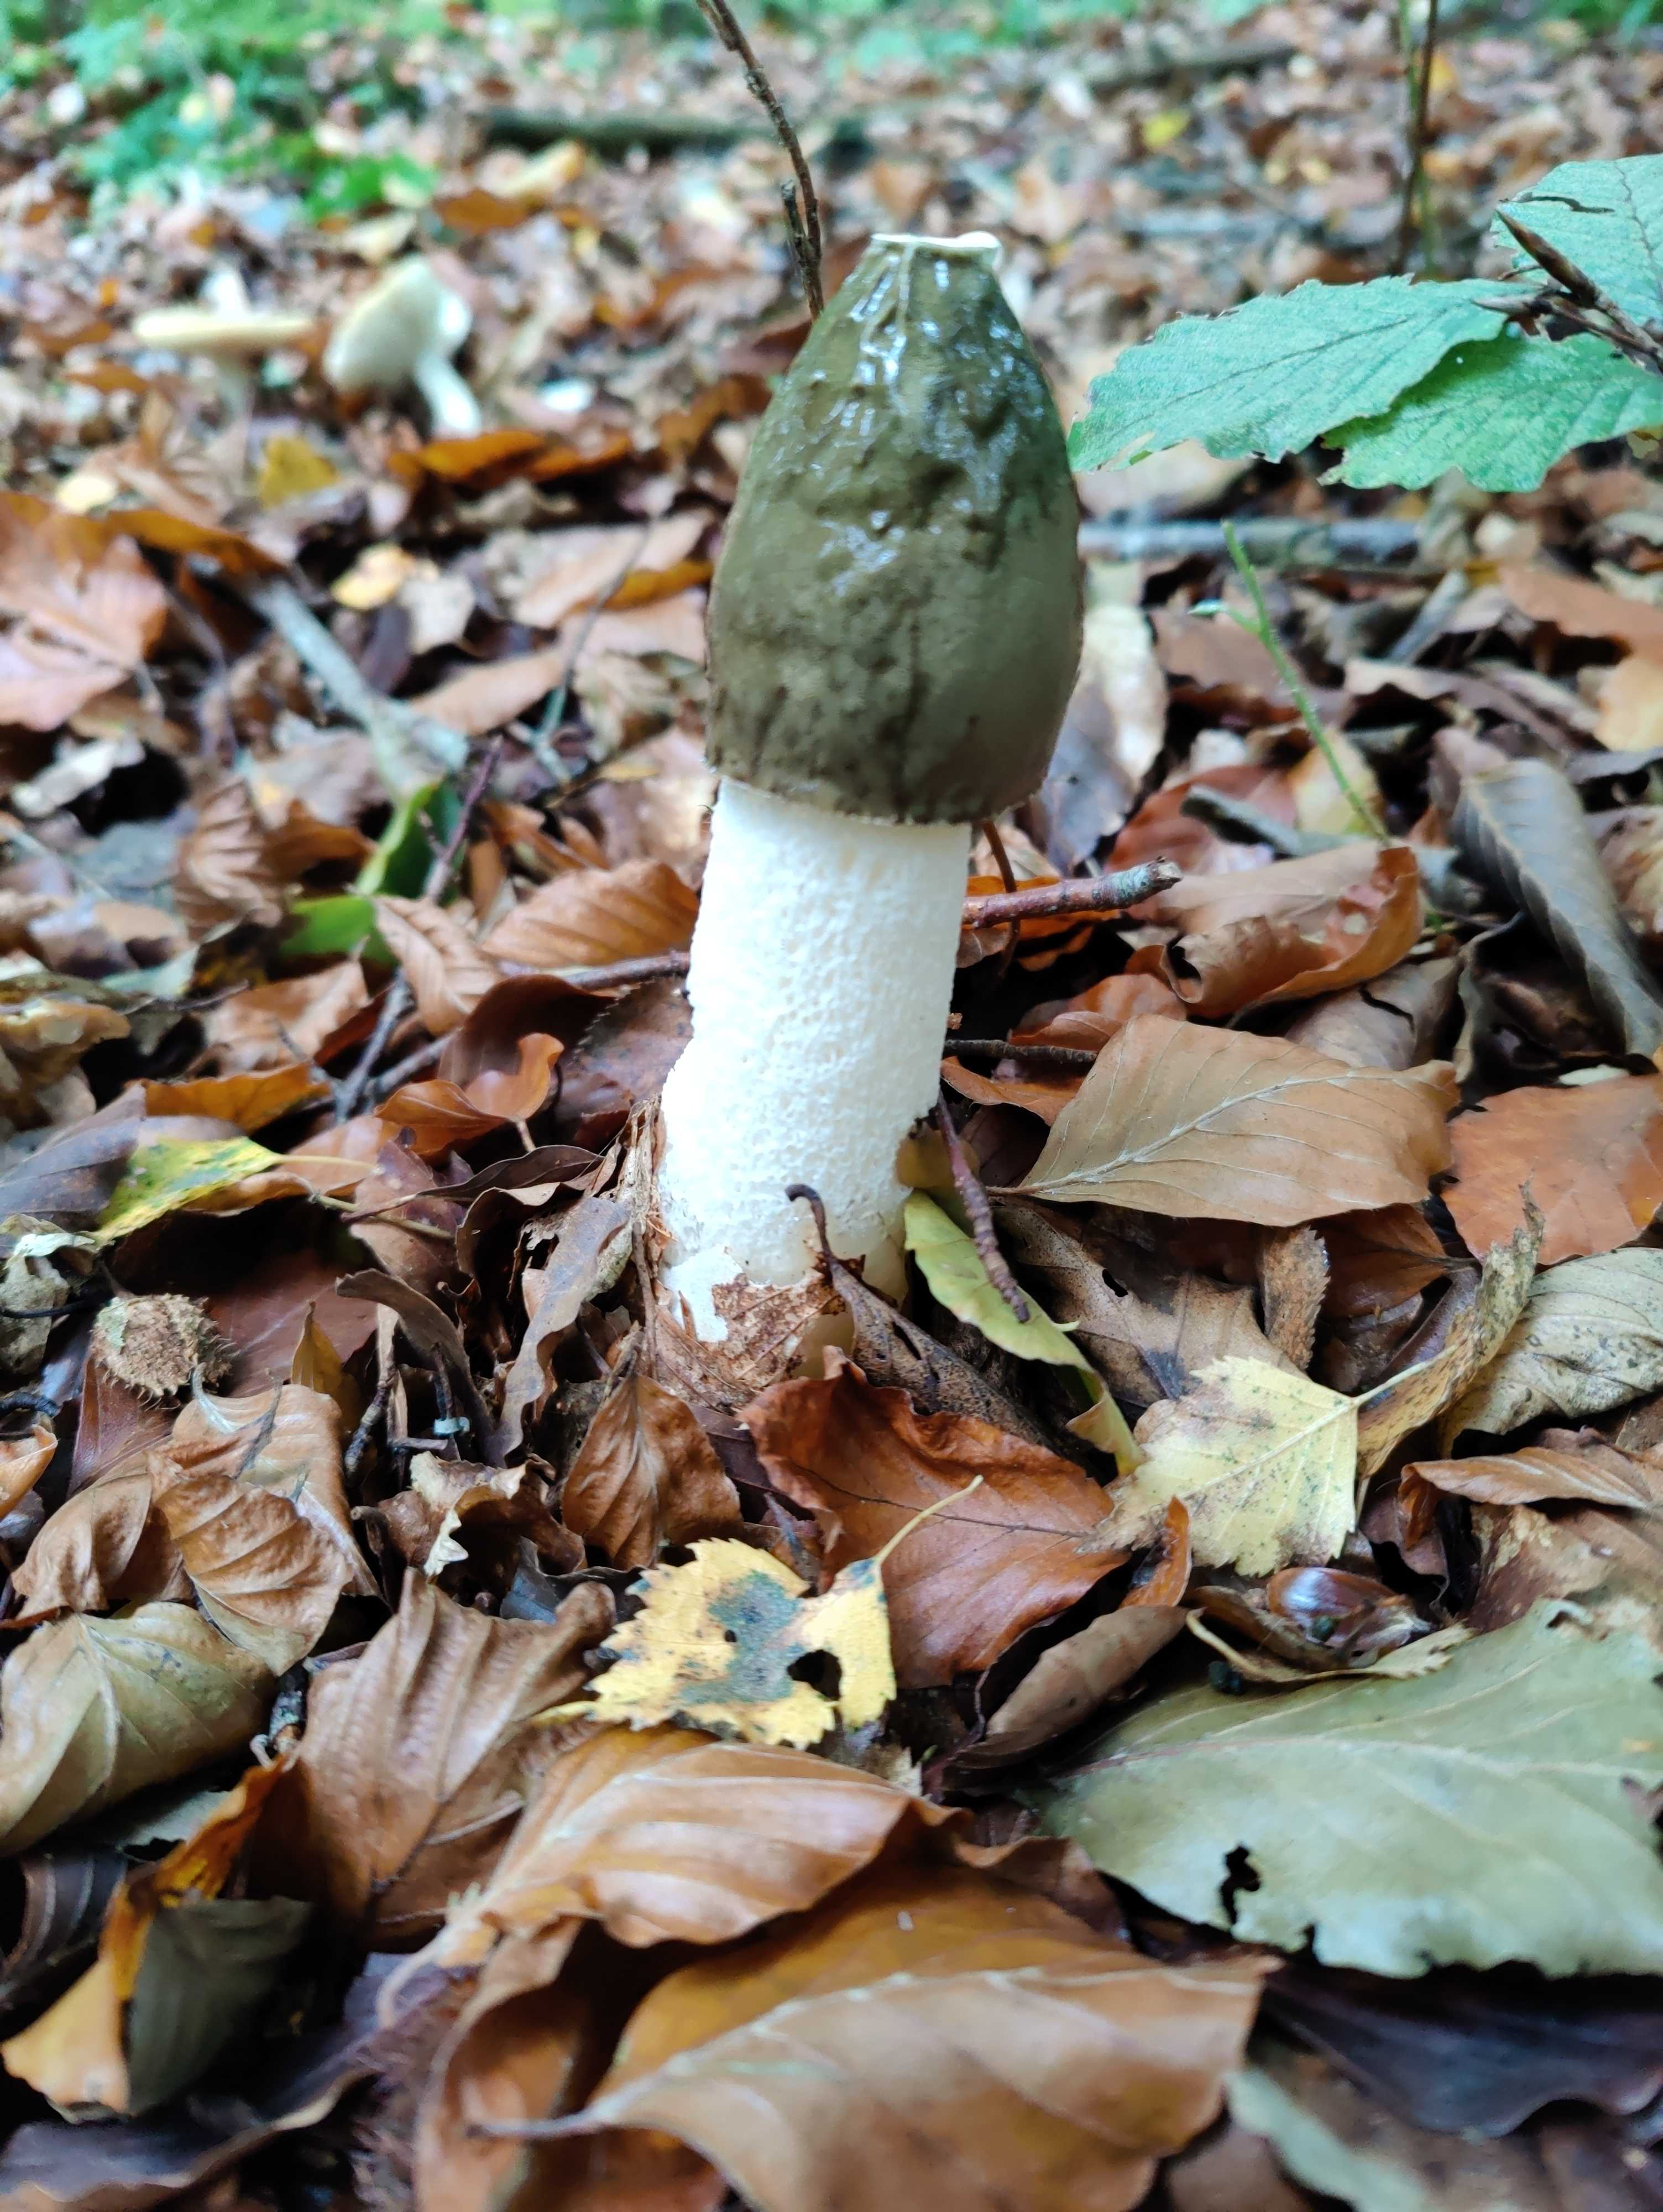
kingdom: Fungi
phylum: Basidiomycota
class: Agaricomycetes
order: Phallales
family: Phallaceae
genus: Phallus
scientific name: Phallus impudicus
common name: almindelig stinksvamp
